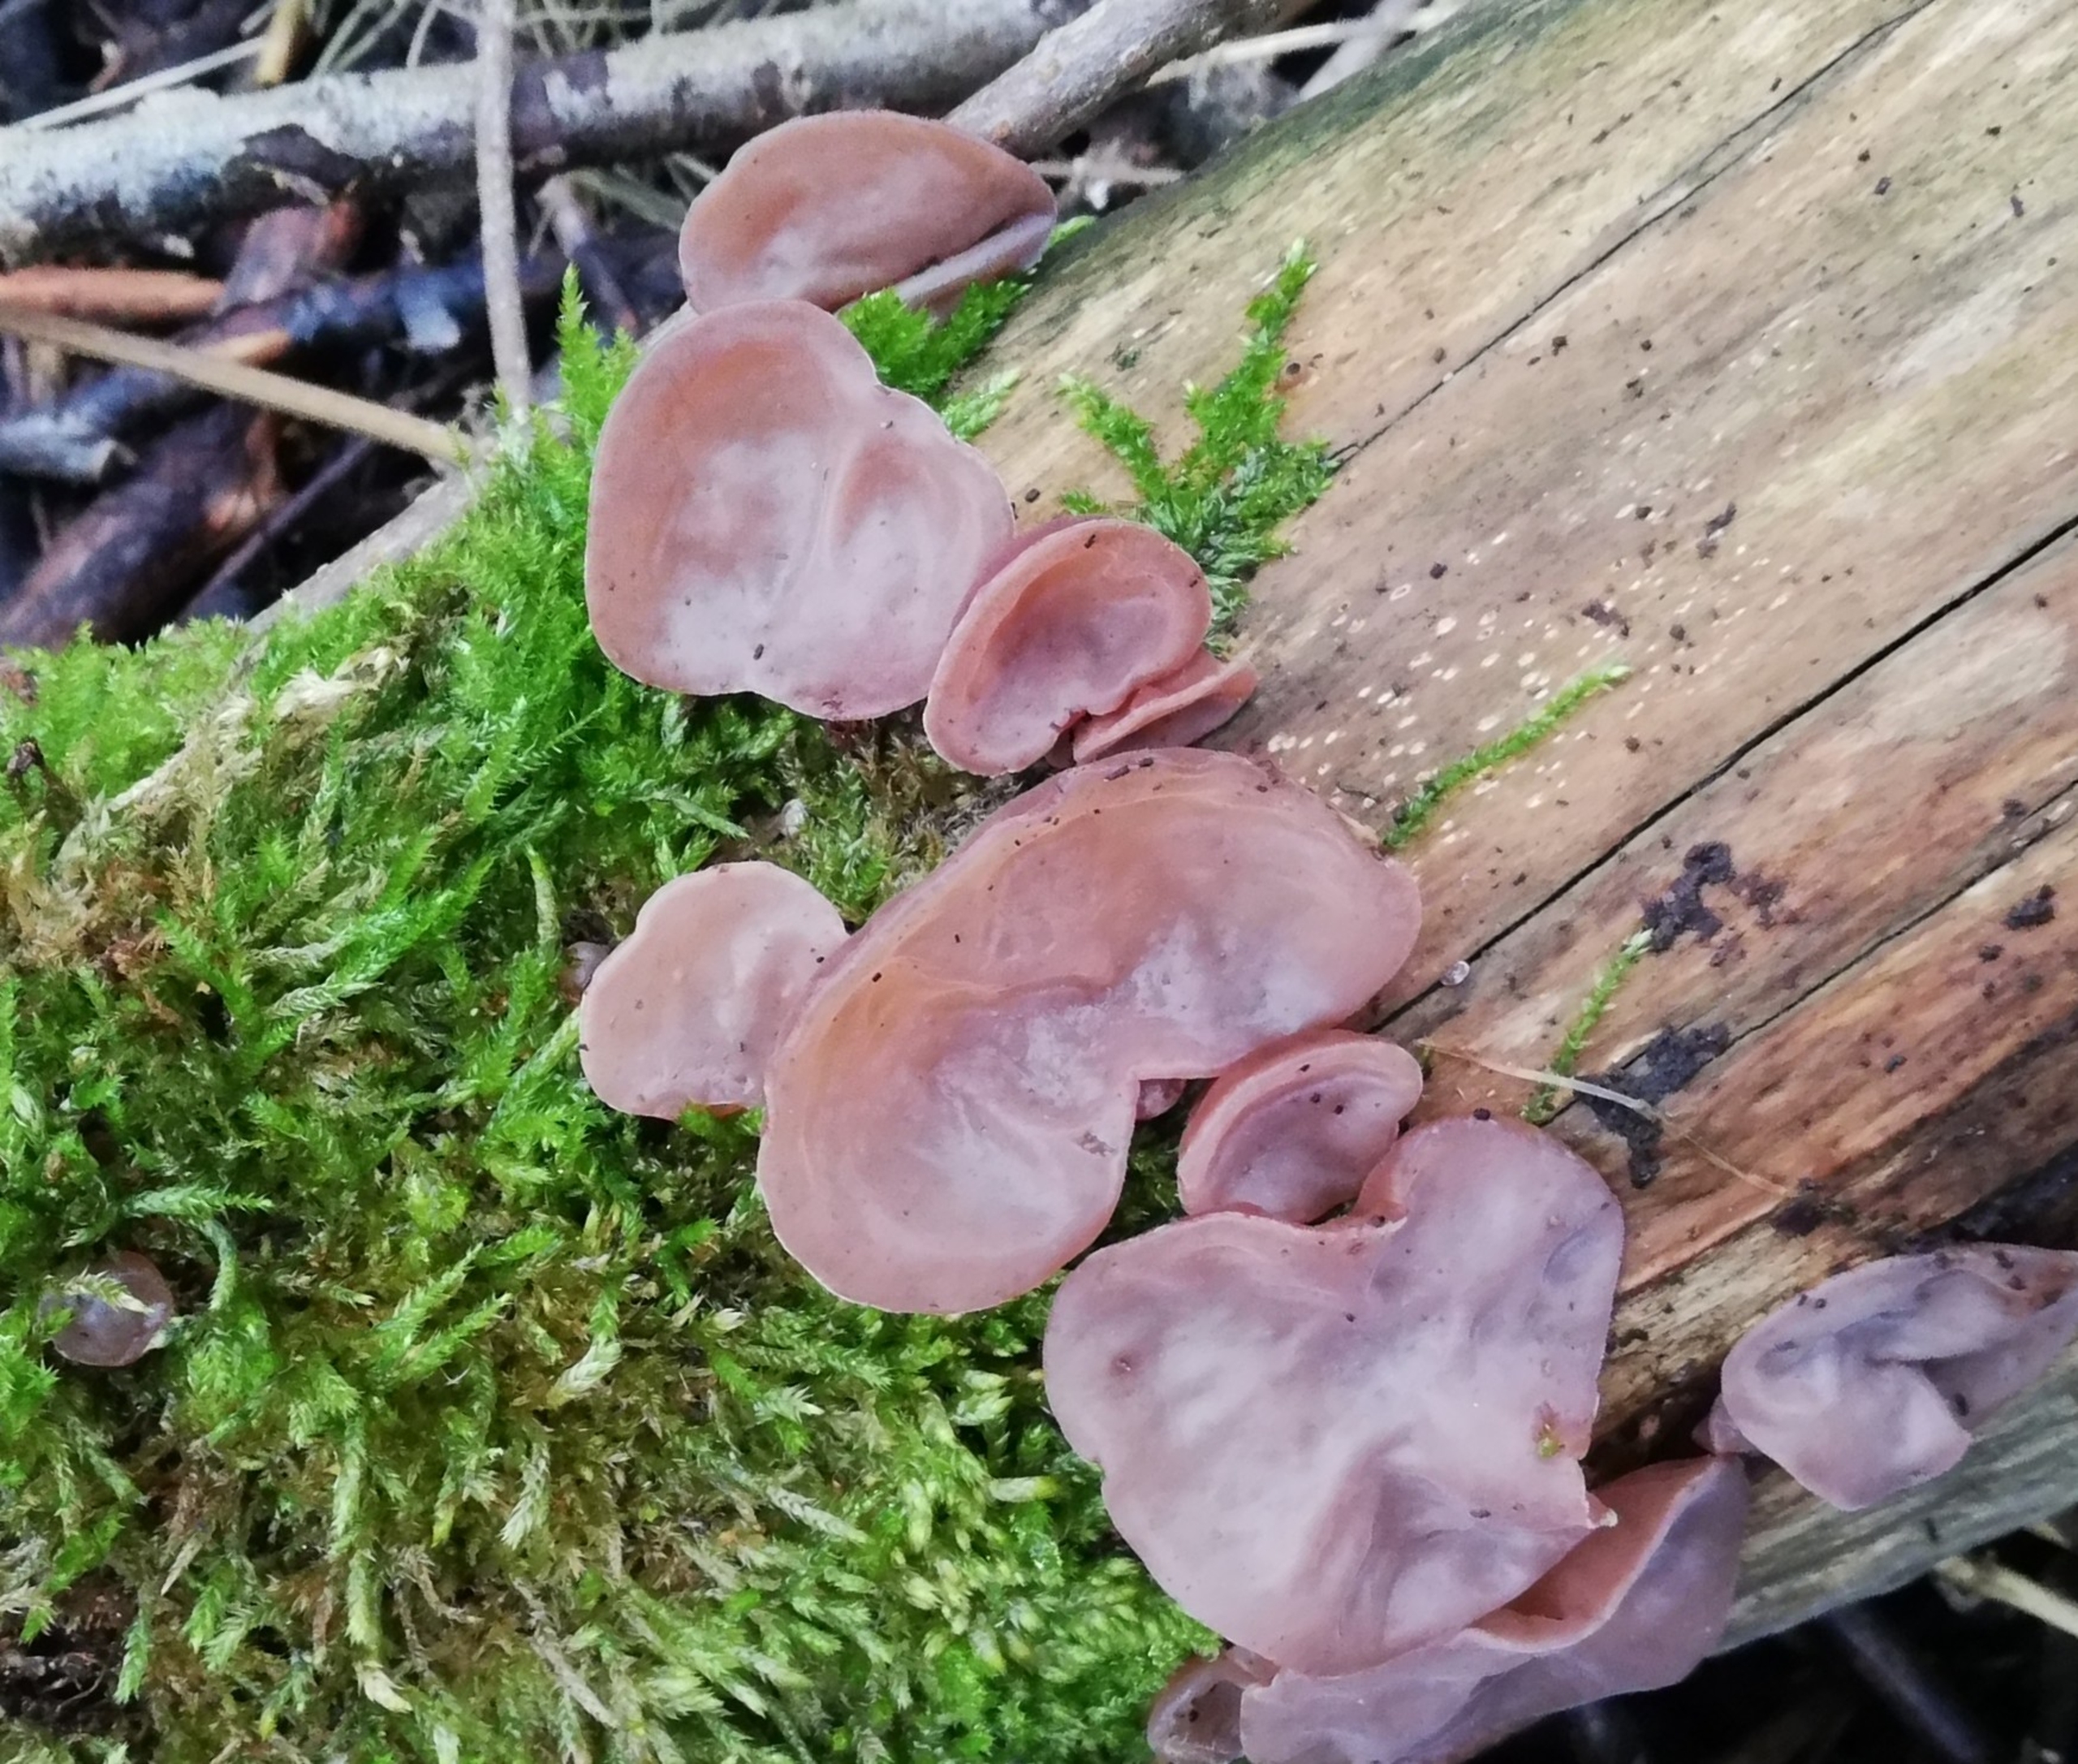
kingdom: Fungi
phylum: Basidiomycota
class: Agaricomycetes
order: Auriculariales
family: Auriculariaceae
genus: Auricularia
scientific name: Auricularia auricula-judae
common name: Almindelig judasøre
